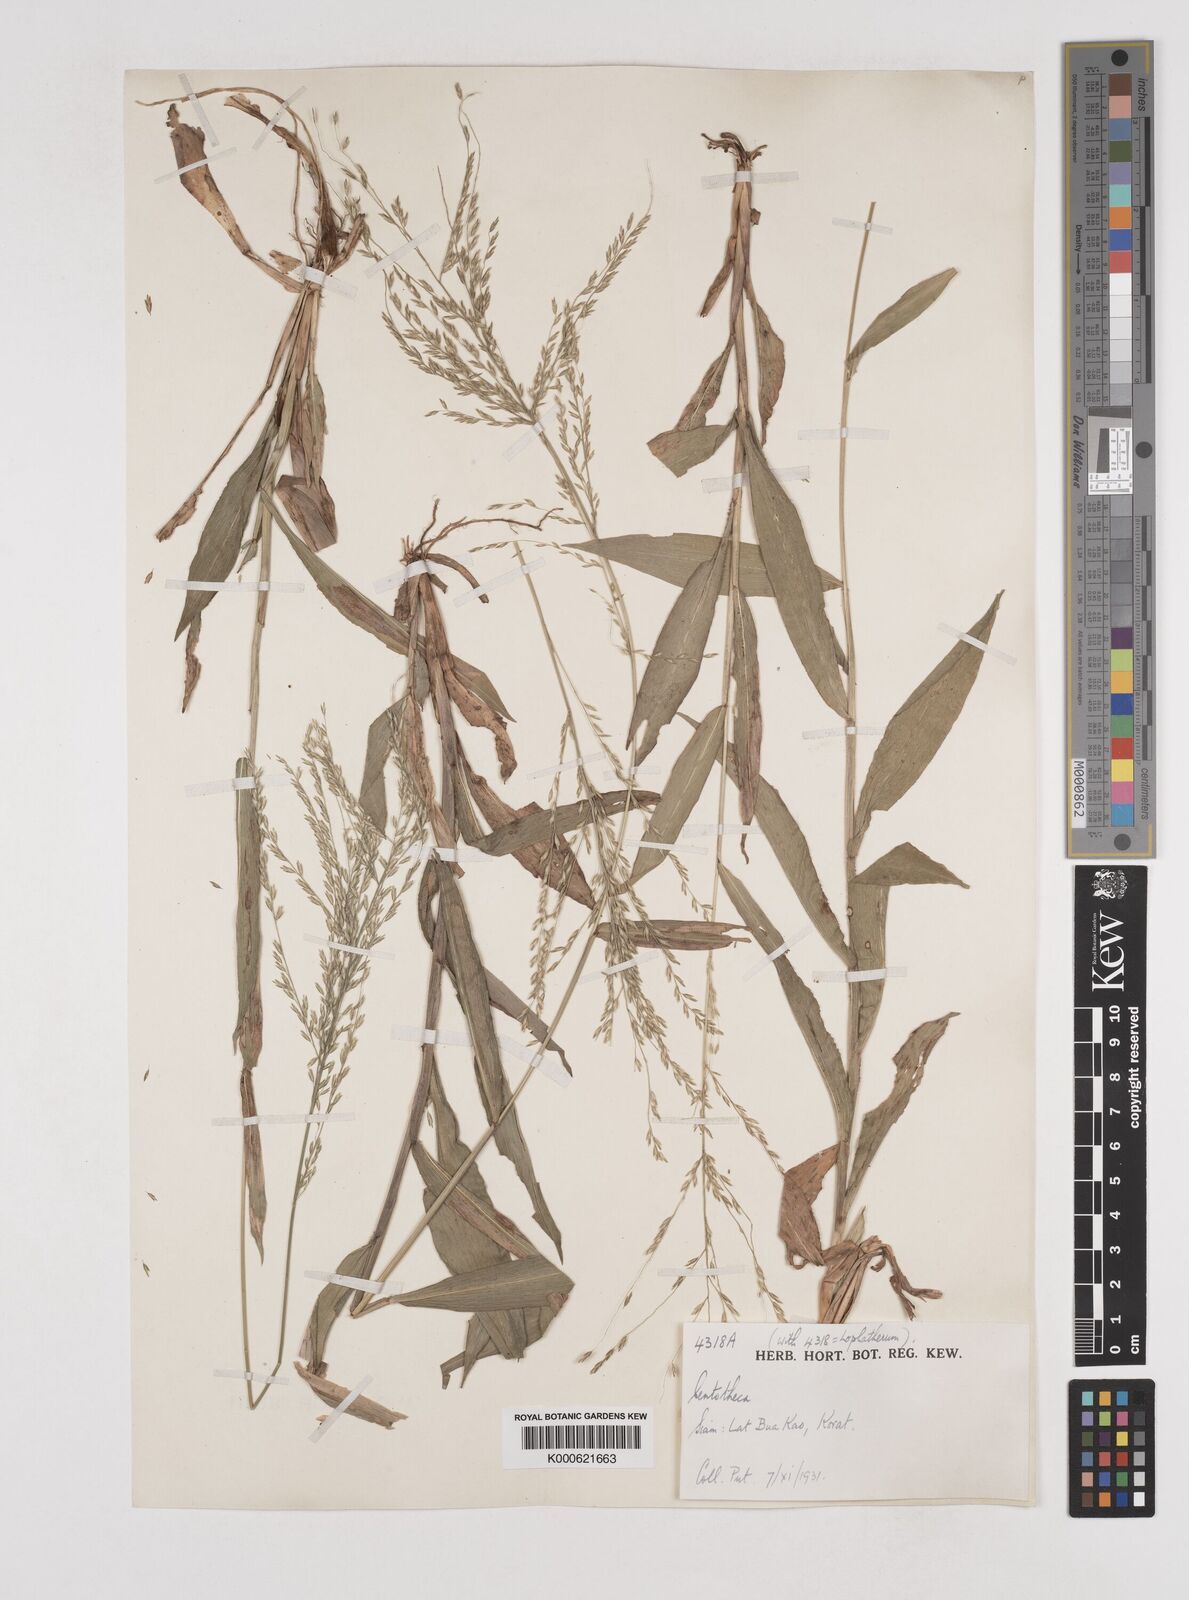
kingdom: Plantae
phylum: Tracheophyta
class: Liliopsida
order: Poales
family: Poaceae
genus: Centotheca
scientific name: Centotheca lappacea
